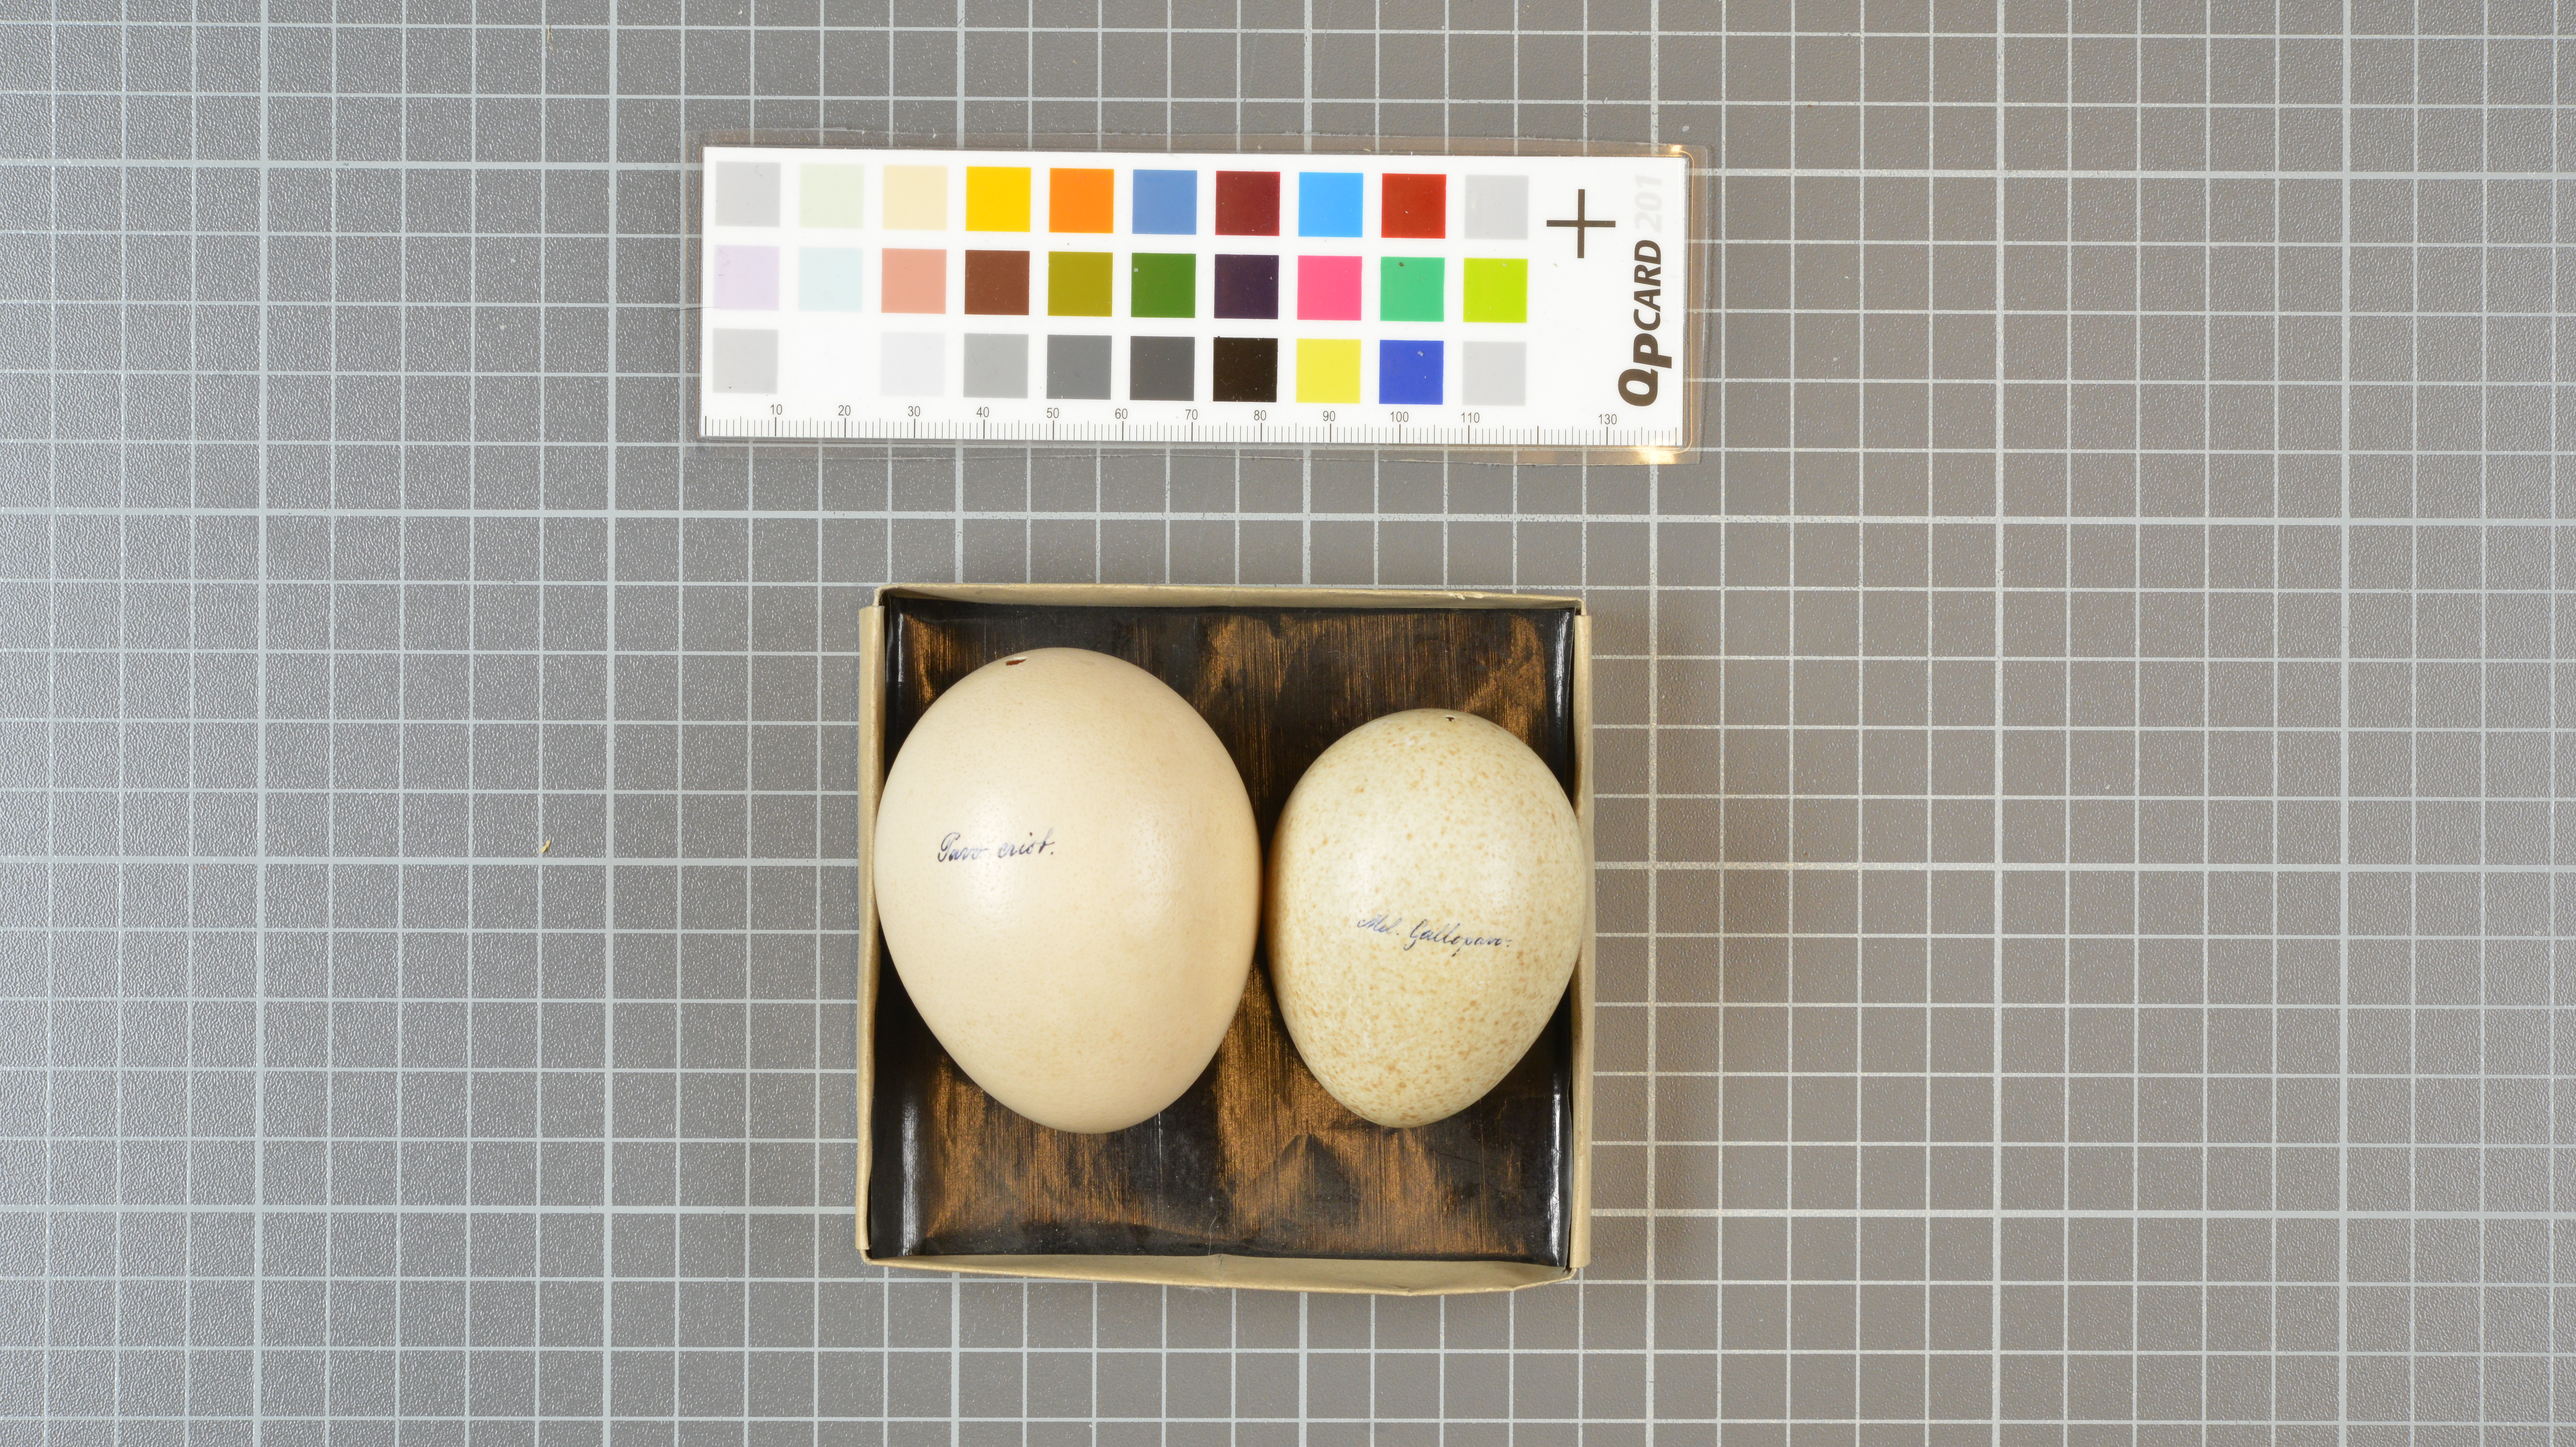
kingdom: Animalia
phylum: Chordata
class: Aves
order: Galliformes
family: Phasianidae
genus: Meleagris
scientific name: Meleagris gallopavo
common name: Wild turkey
